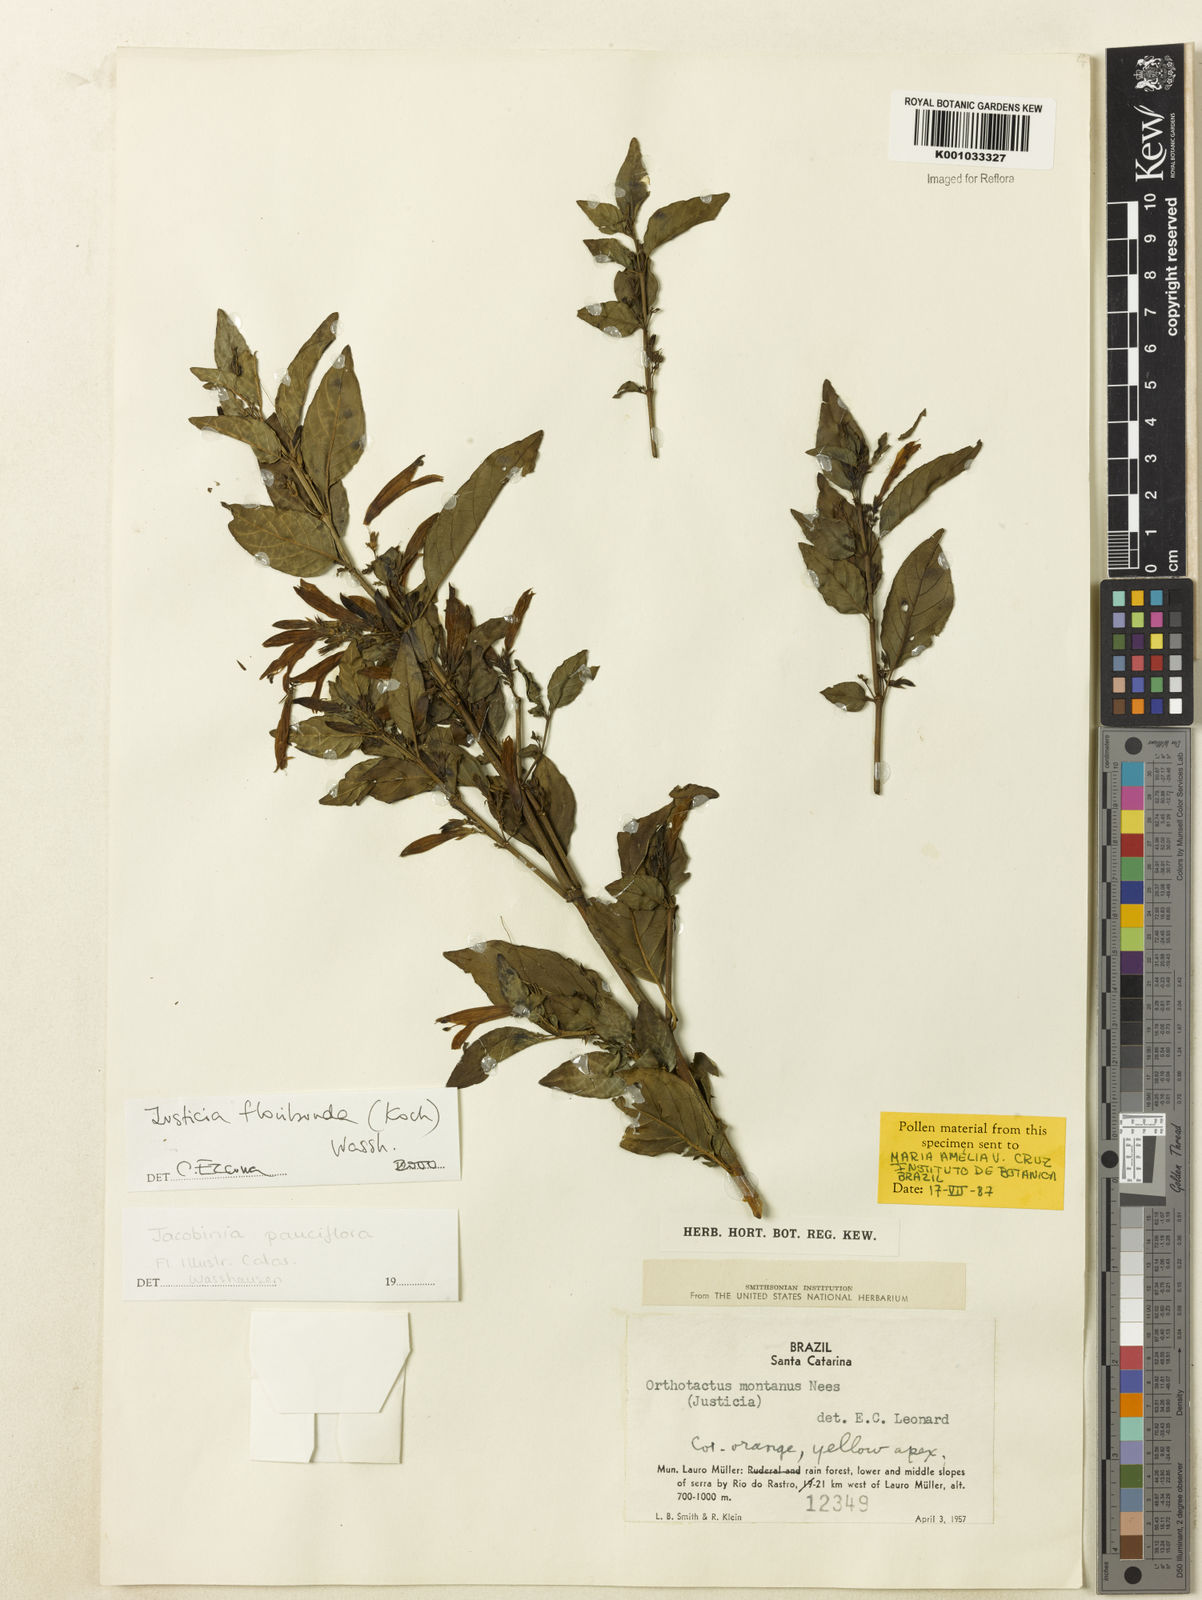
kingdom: Plantae
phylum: Tracheophyta
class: Magnoliopsida
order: Lamiales
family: Acanthaceae
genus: Justicia
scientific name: Justicia floribunda
